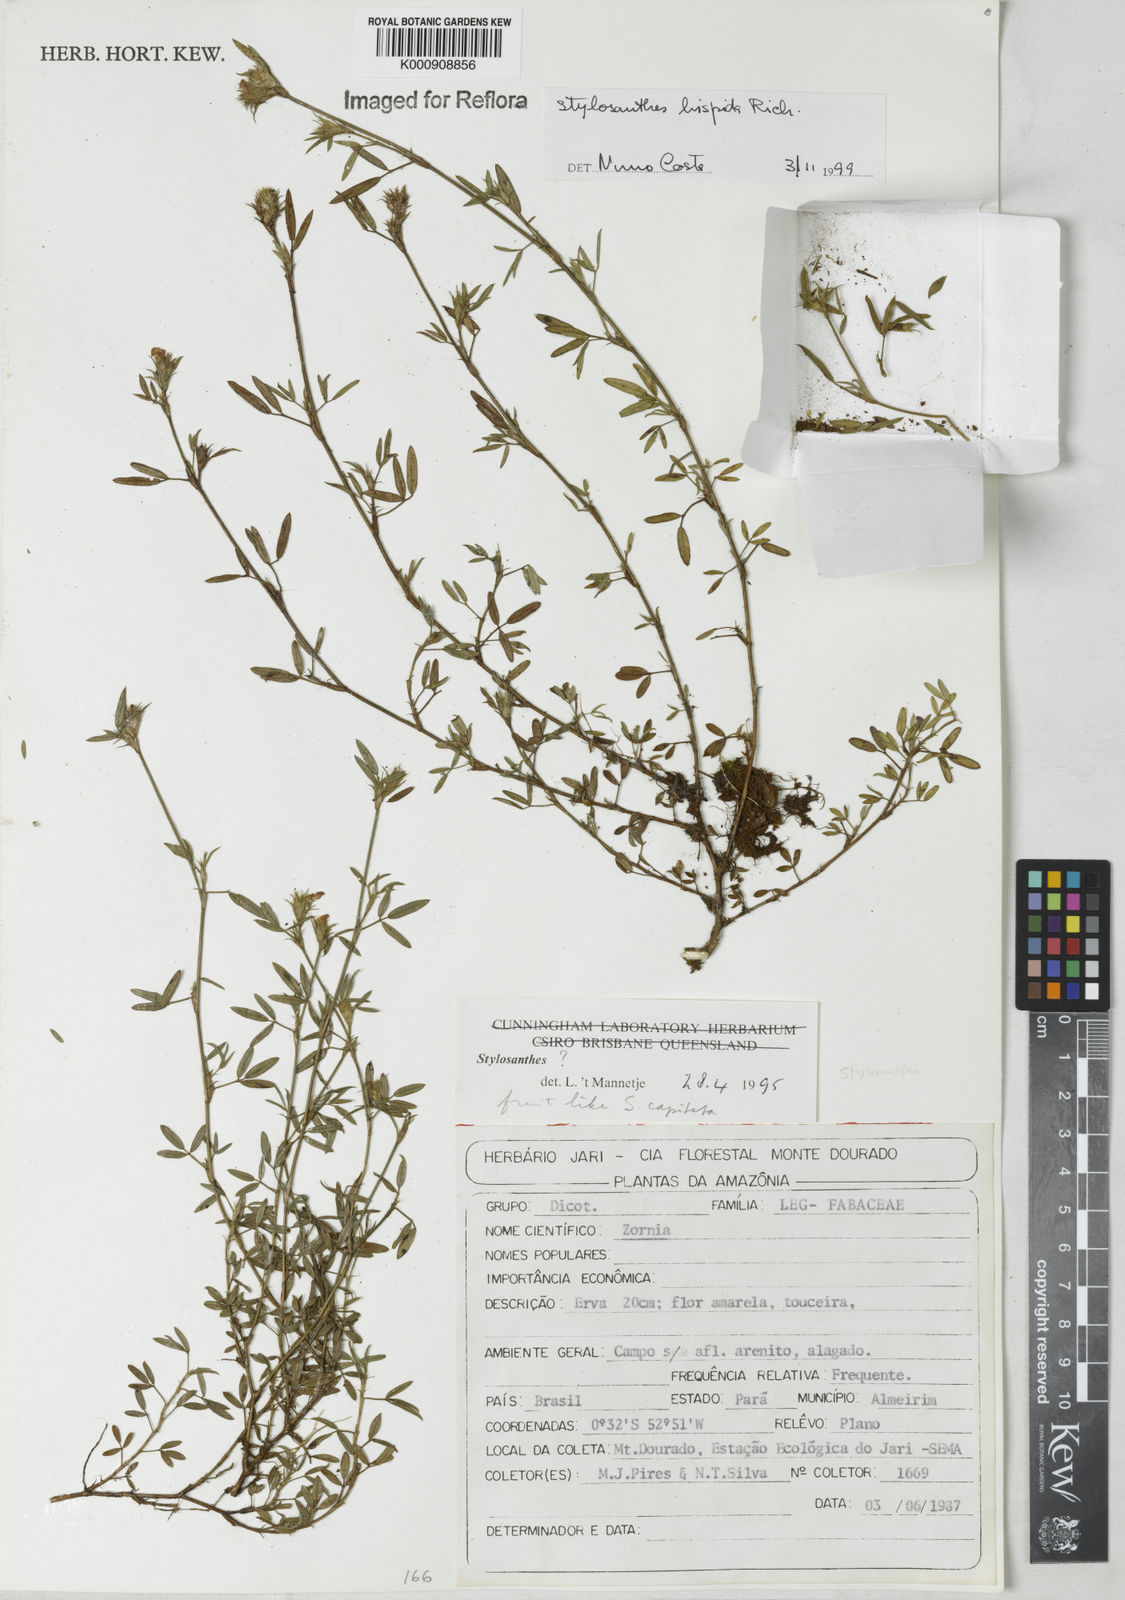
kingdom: Plantae
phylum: Tracheophyta
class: Magnoliopsida
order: Fabales
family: Fabaceae
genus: Stylosanthes
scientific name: Stylosanthes hispida
